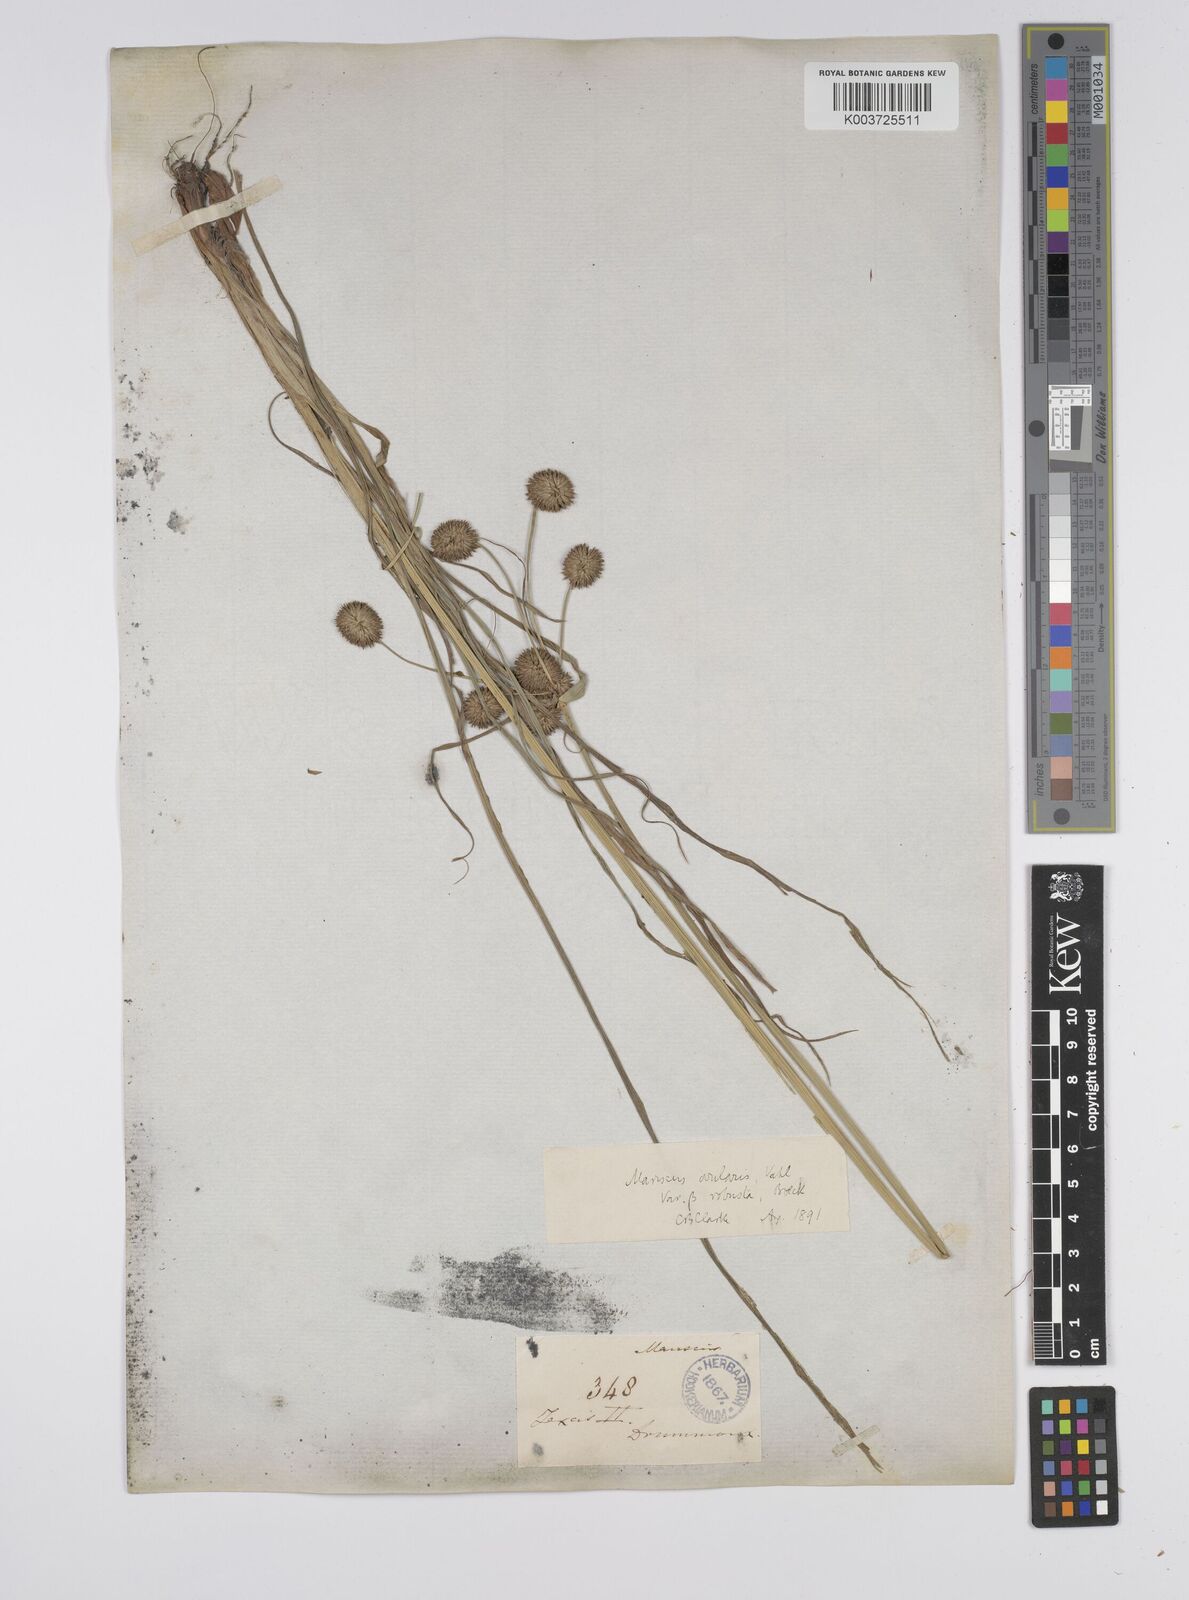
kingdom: Plantae
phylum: Tracheophyta
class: Liliopsida
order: Poales
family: Cyperaceae
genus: Cyperus
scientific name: Cyperus echinatus
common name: Teasel sedge
